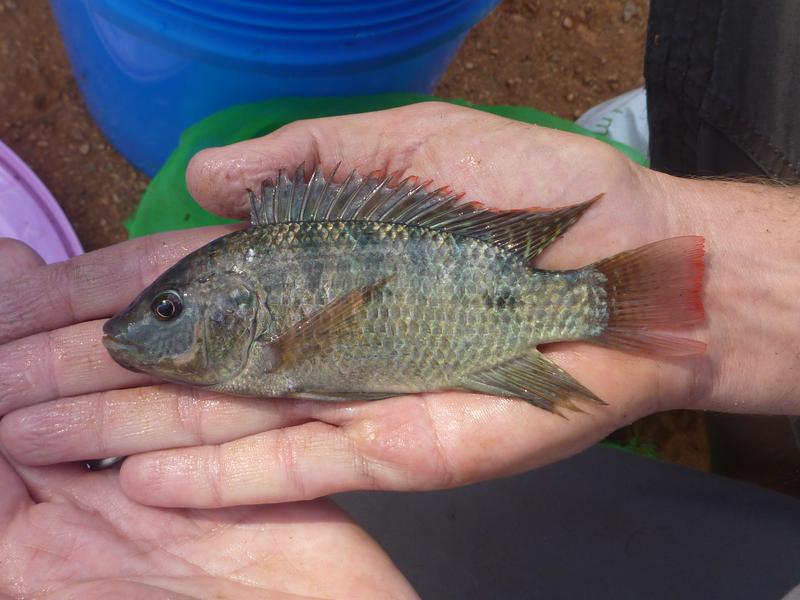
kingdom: Animalia
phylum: Chordata
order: Perciformes
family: Cichlidae
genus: Oreochromis
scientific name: Oreochromis shiranus
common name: Chilwa tilapia
